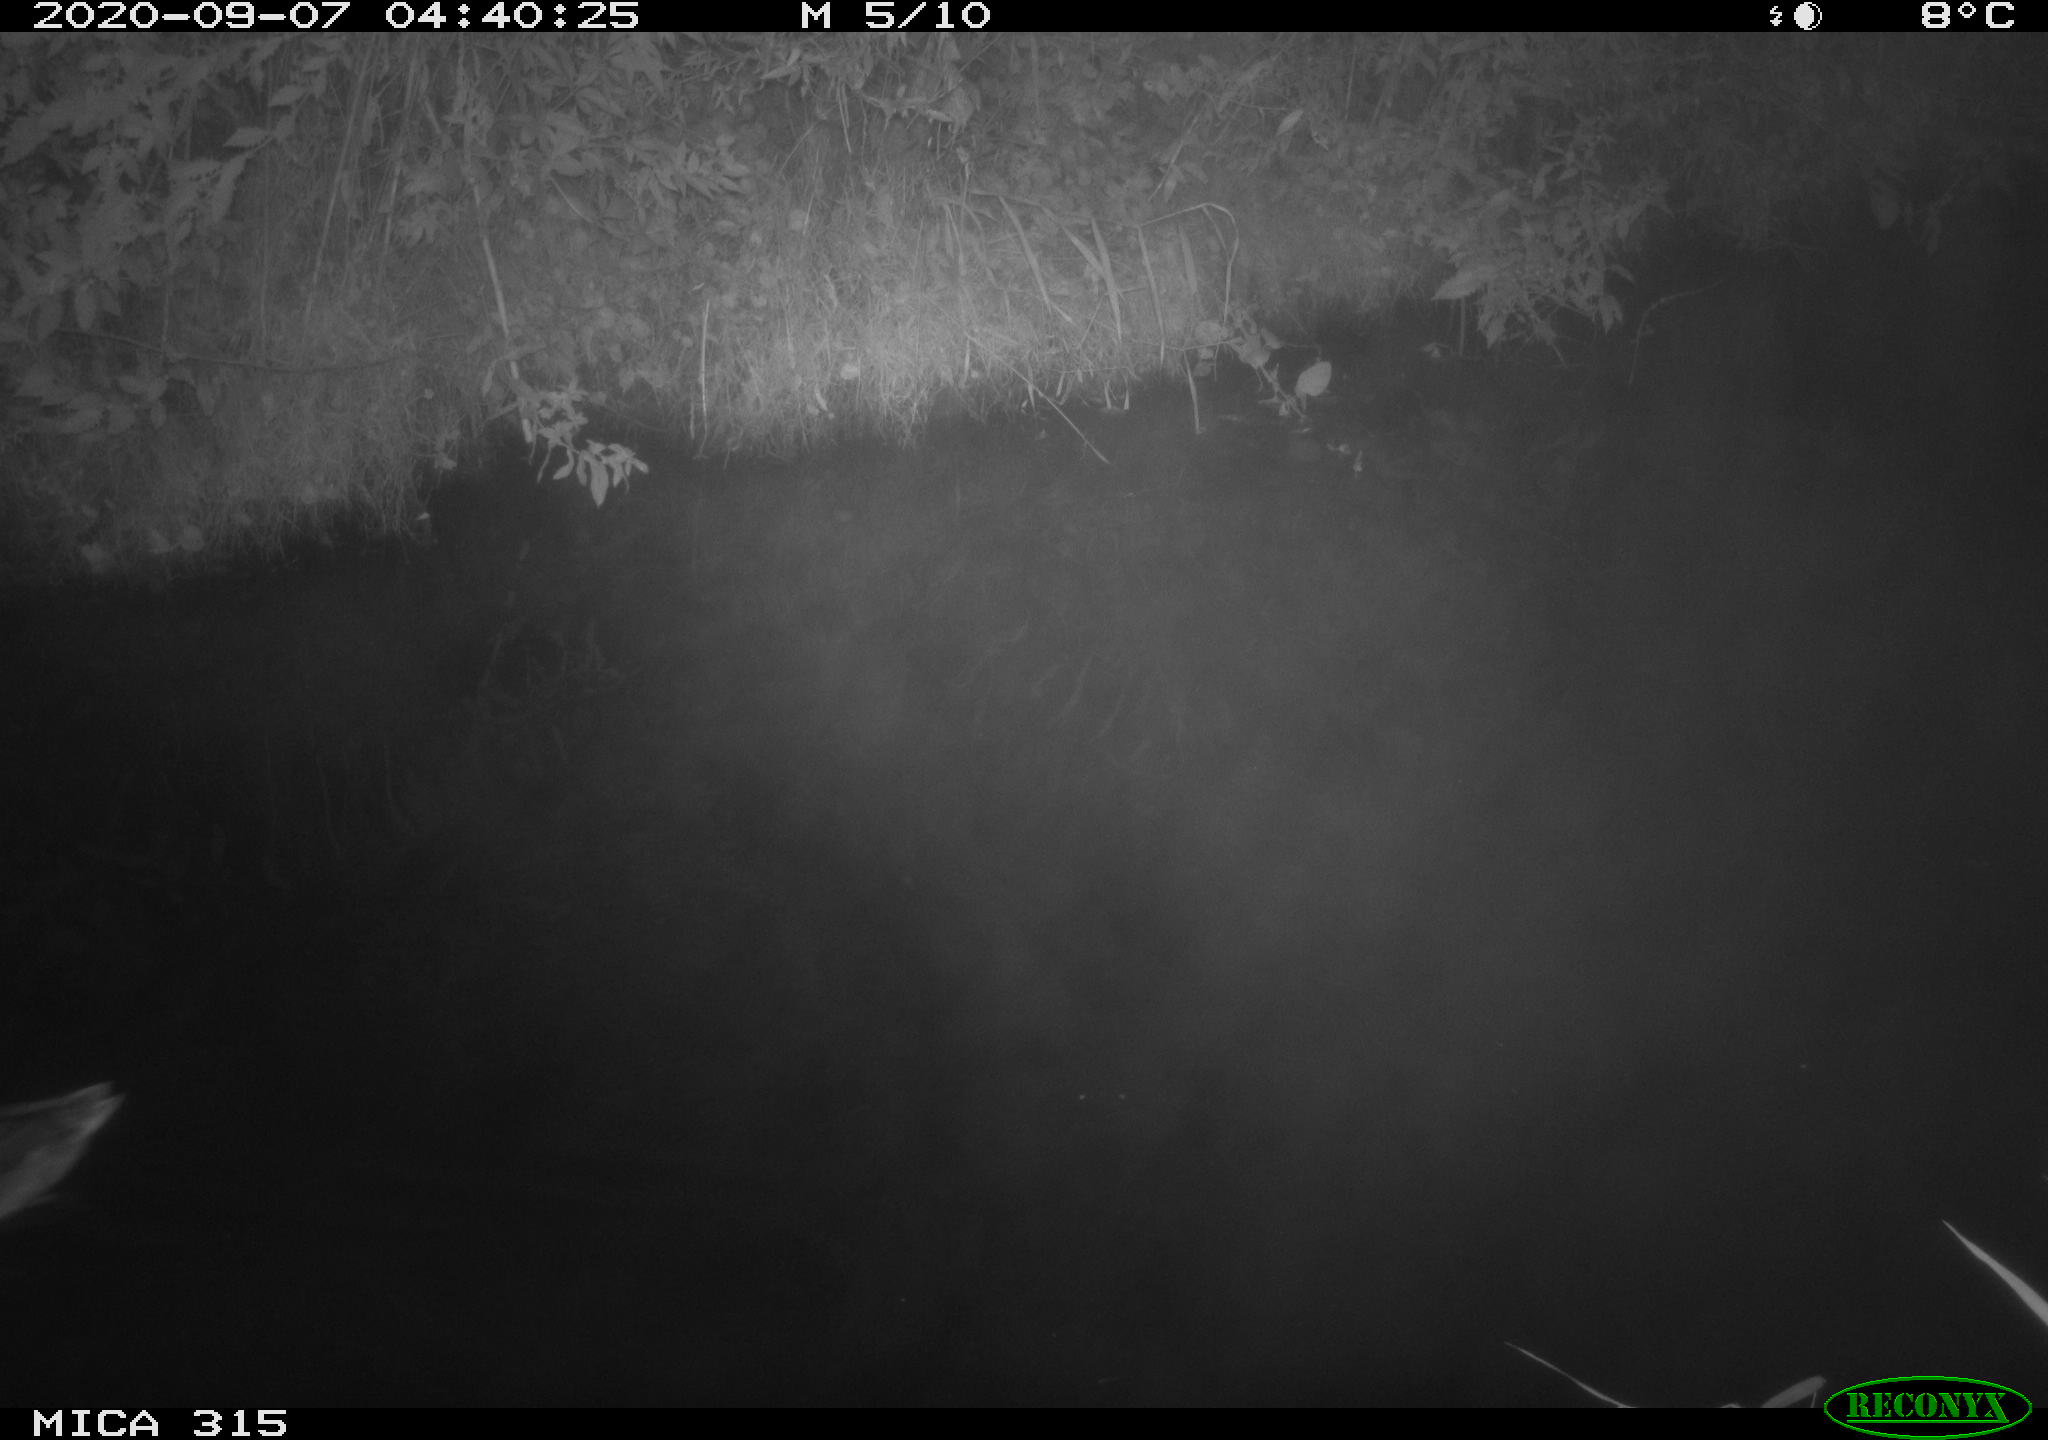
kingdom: Animalia
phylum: Chordata
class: Aves
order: Anseriformes
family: Anatidae
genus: Anas
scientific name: Anas platyrhynchos
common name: Mallard
